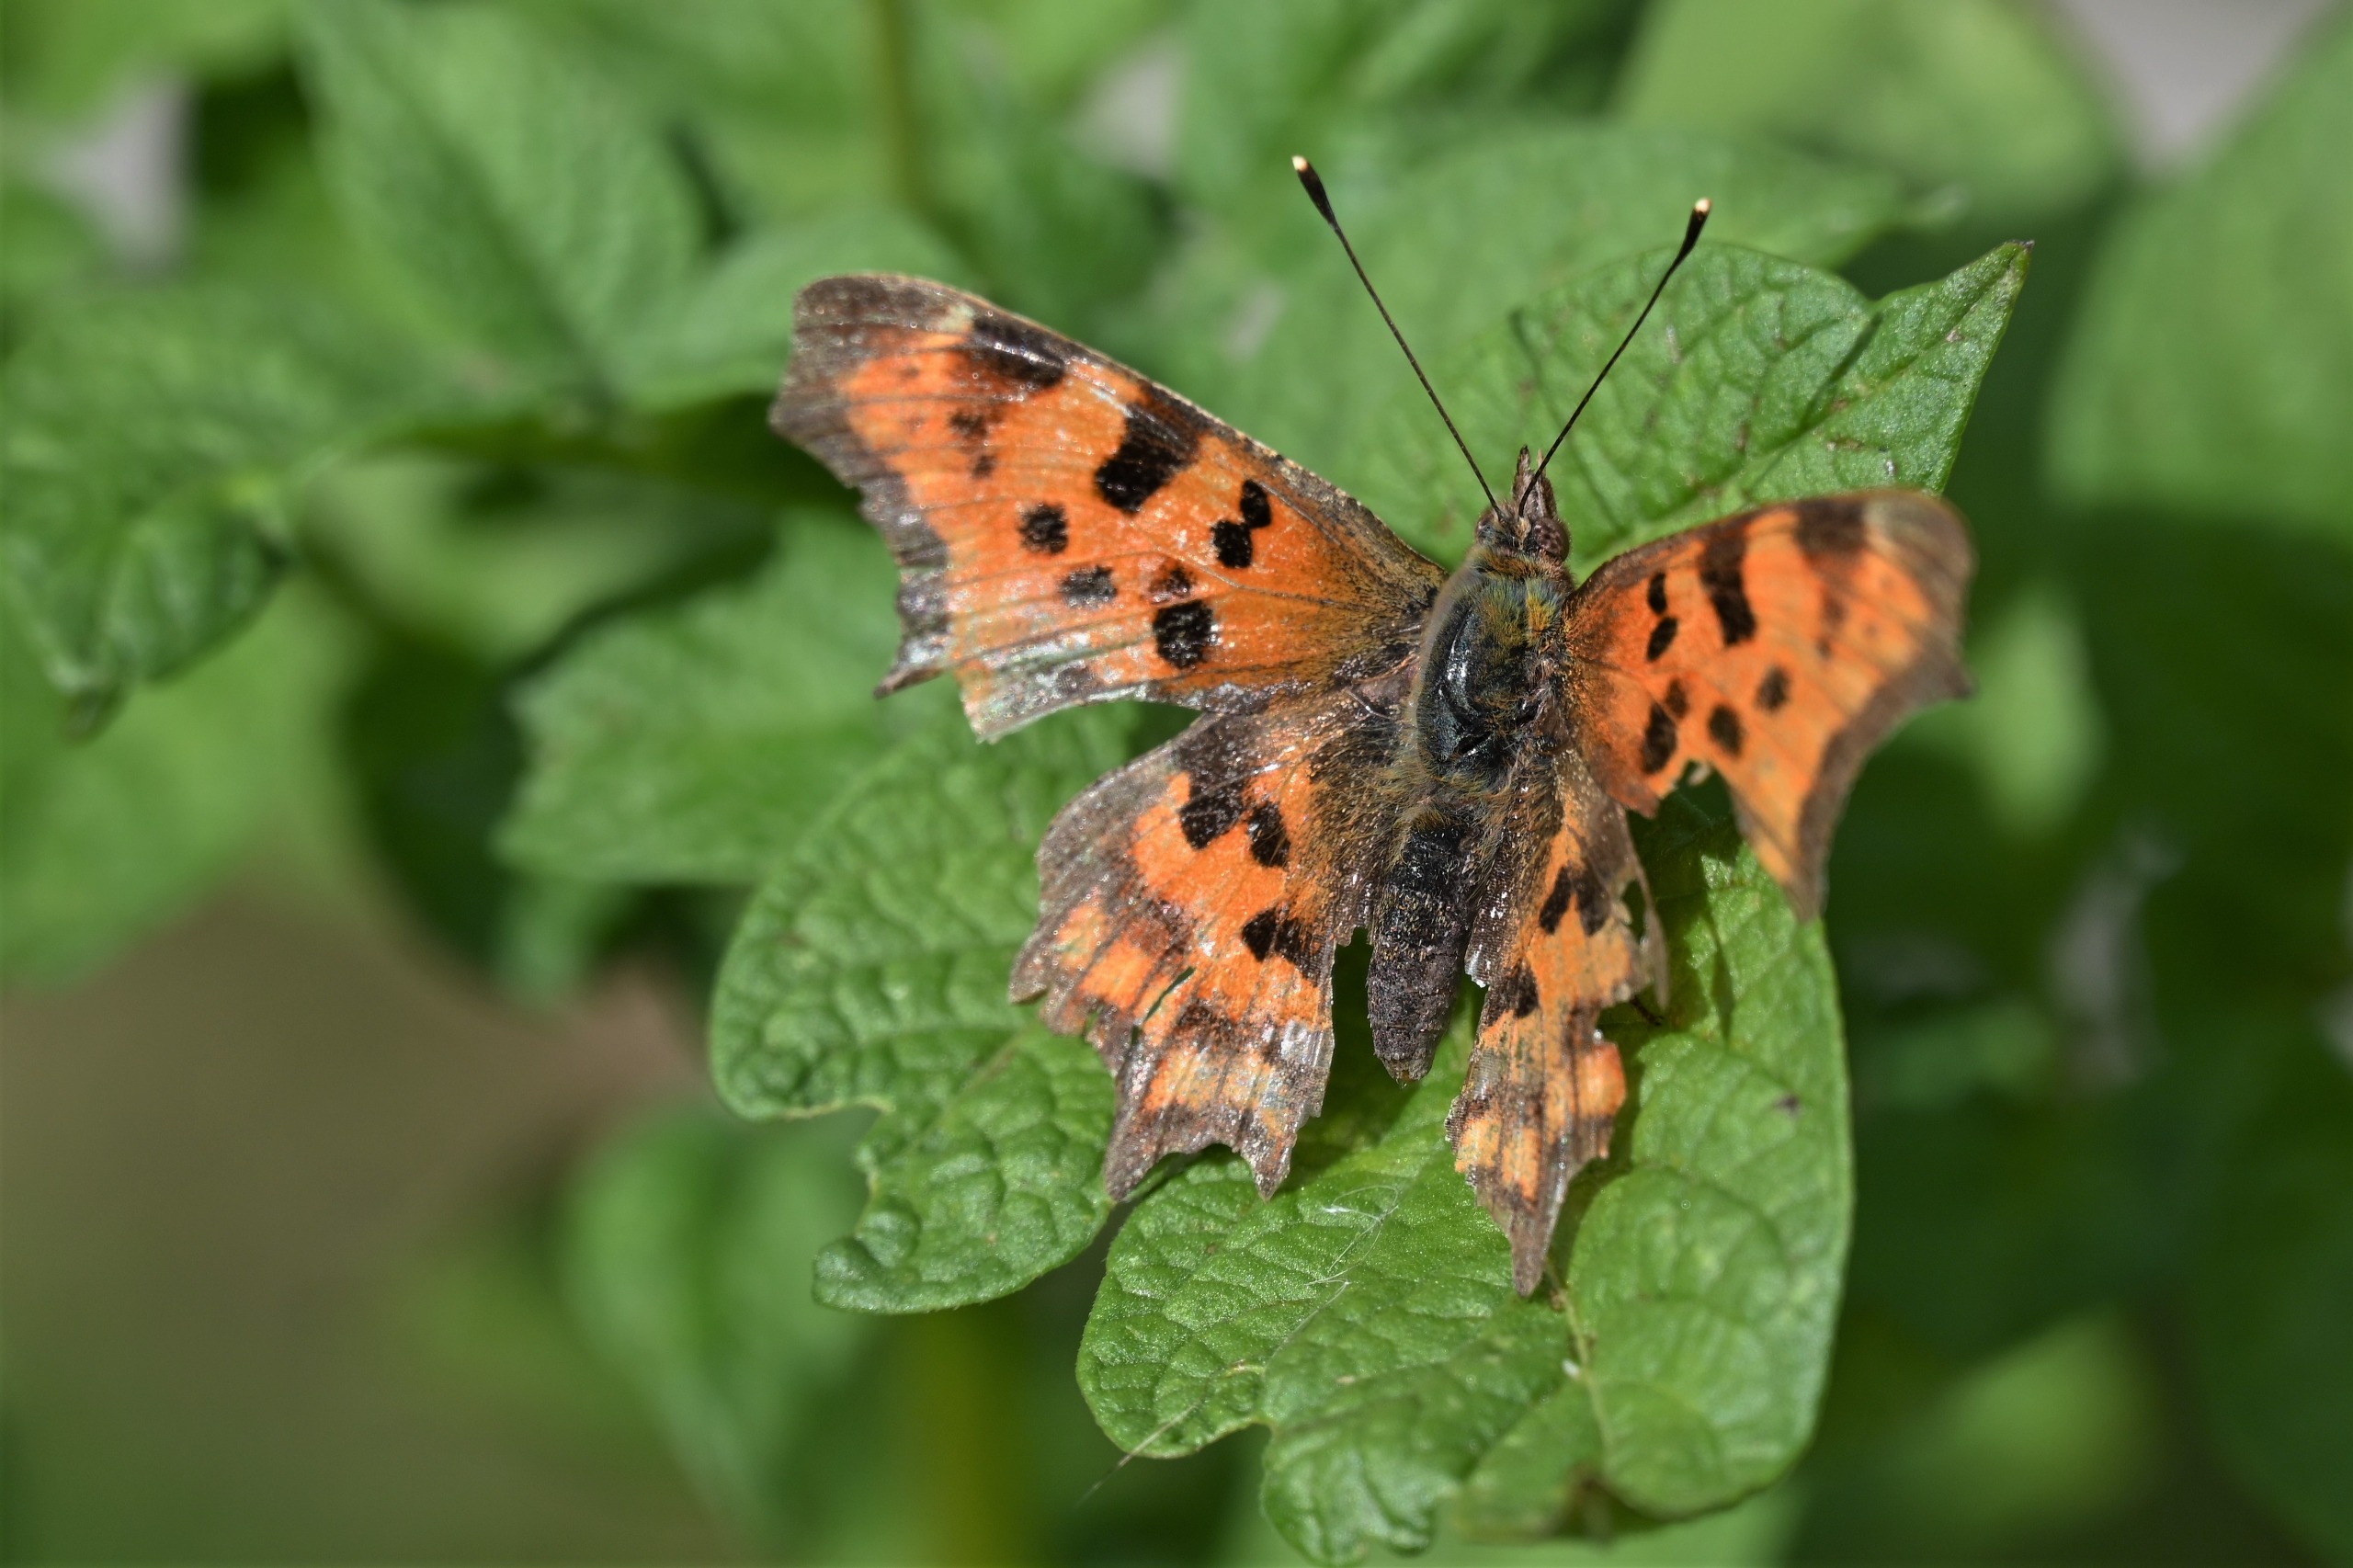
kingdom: Animalia
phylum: Arthropoda
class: Insecta
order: Lepidoptera
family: Nymphalidae
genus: Polygonia
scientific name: Polygonia c-album
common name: Det hvide C
